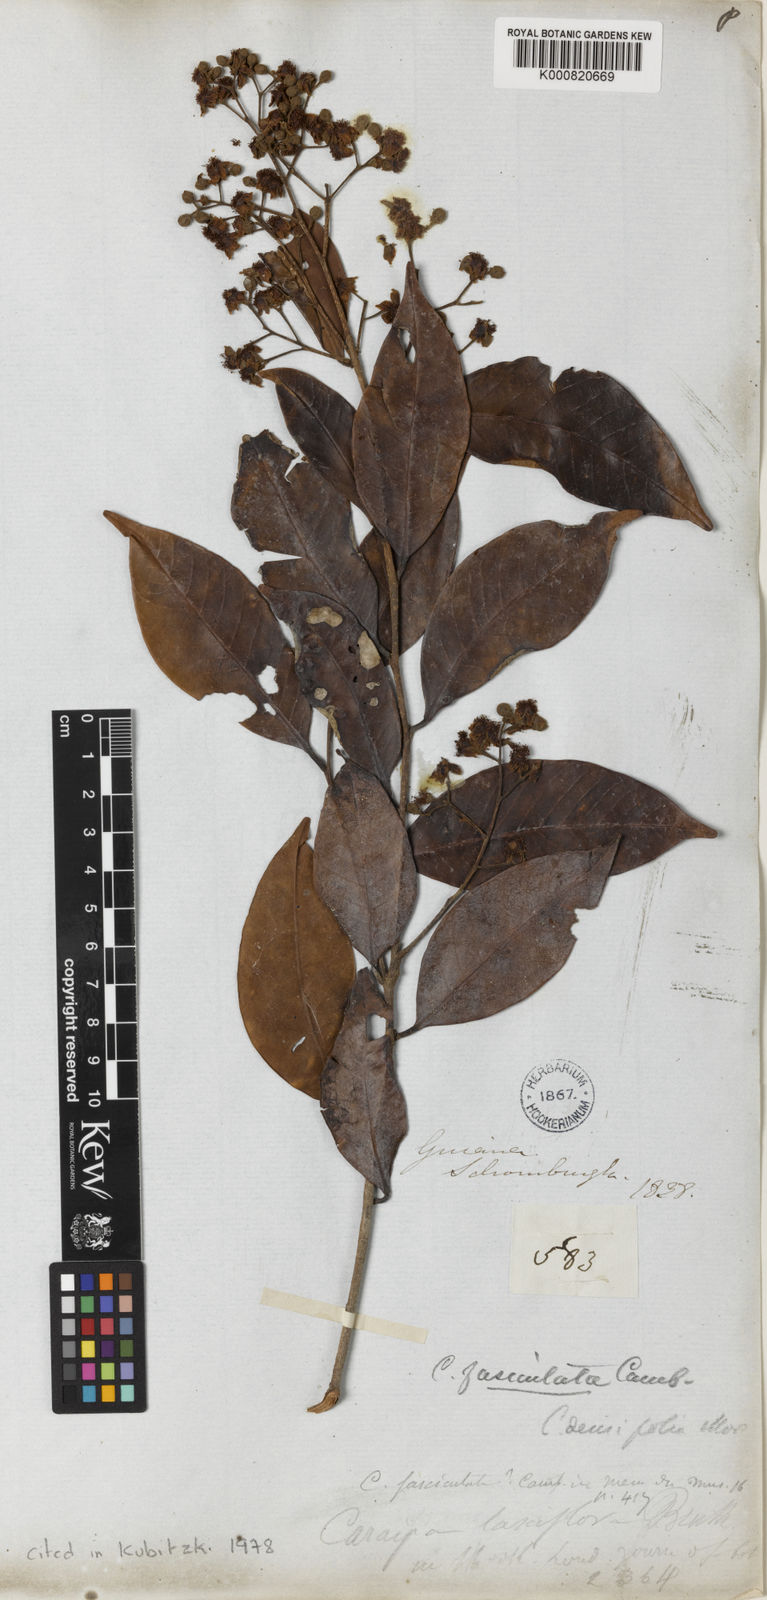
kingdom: Plantae
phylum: Tracheophyta
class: Magnoliopsida
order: Malpighiales
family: Calophyllaceae
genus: Caraipa
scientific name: Caraipa densifolia
